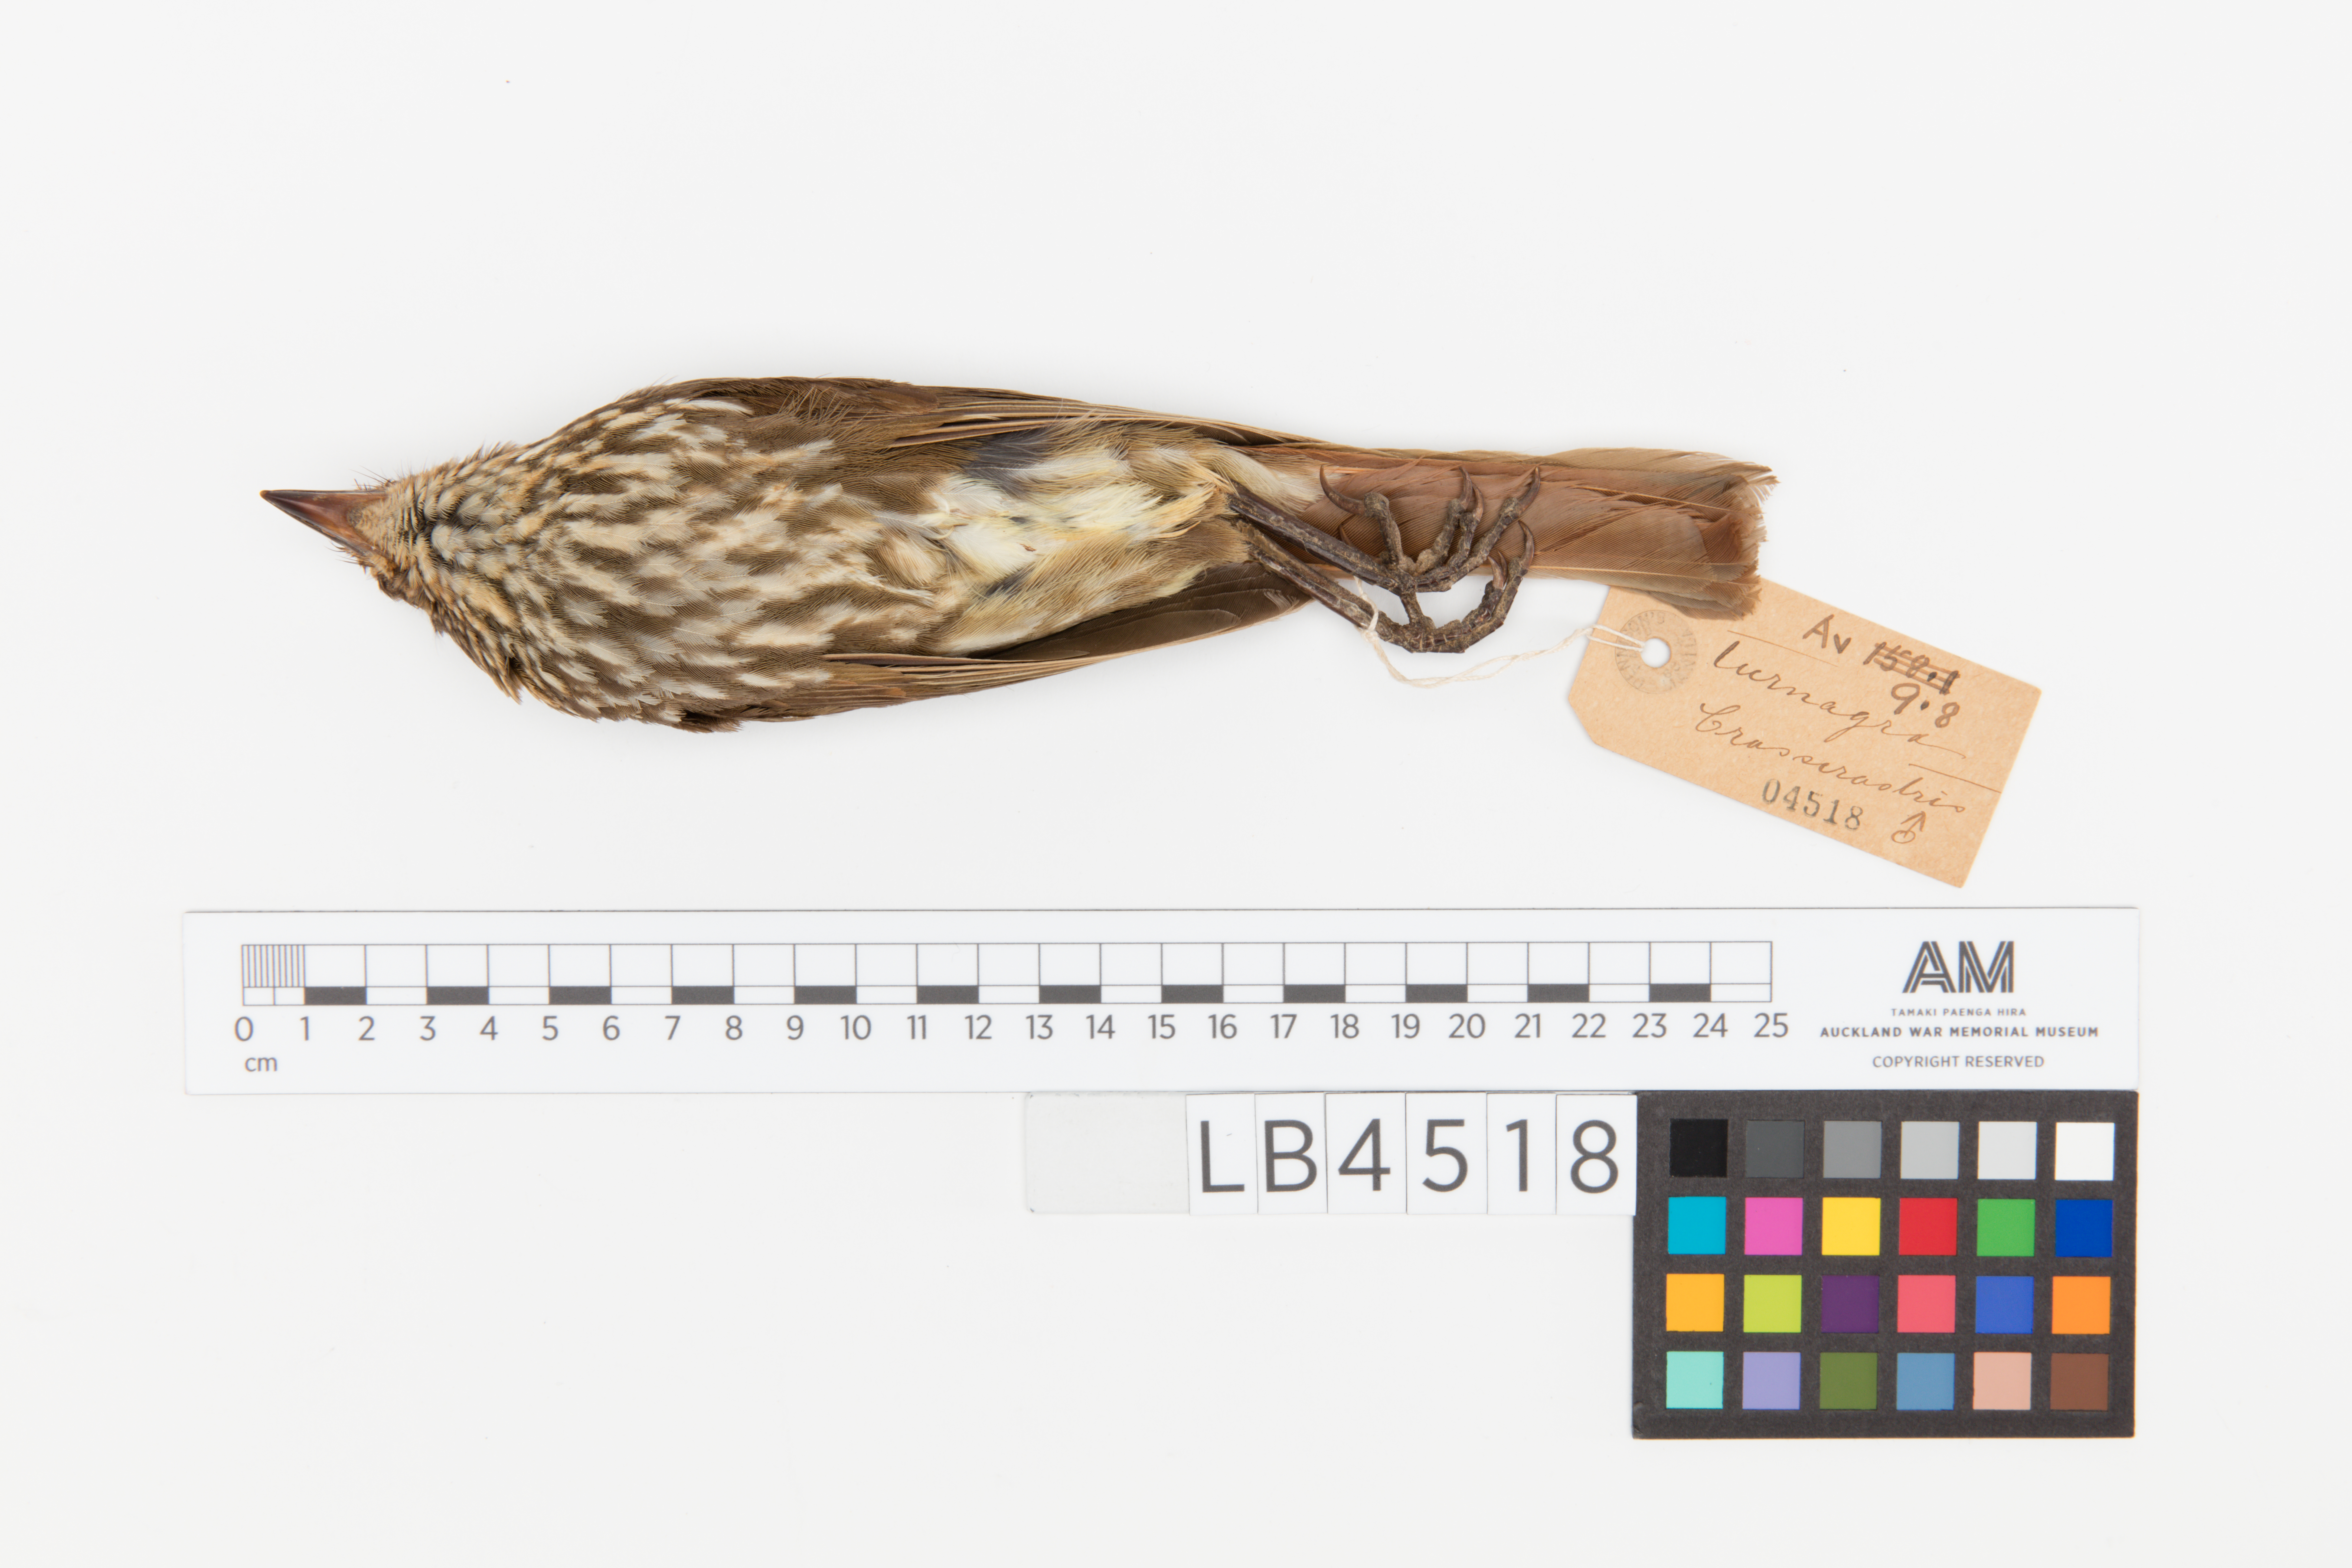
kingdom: Animalia
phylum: Chordata
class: Aves
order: Passeriformes
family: Ptilonorhynchidae
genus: Turnagra
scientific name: Turnagra capensis
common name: South island piopio
